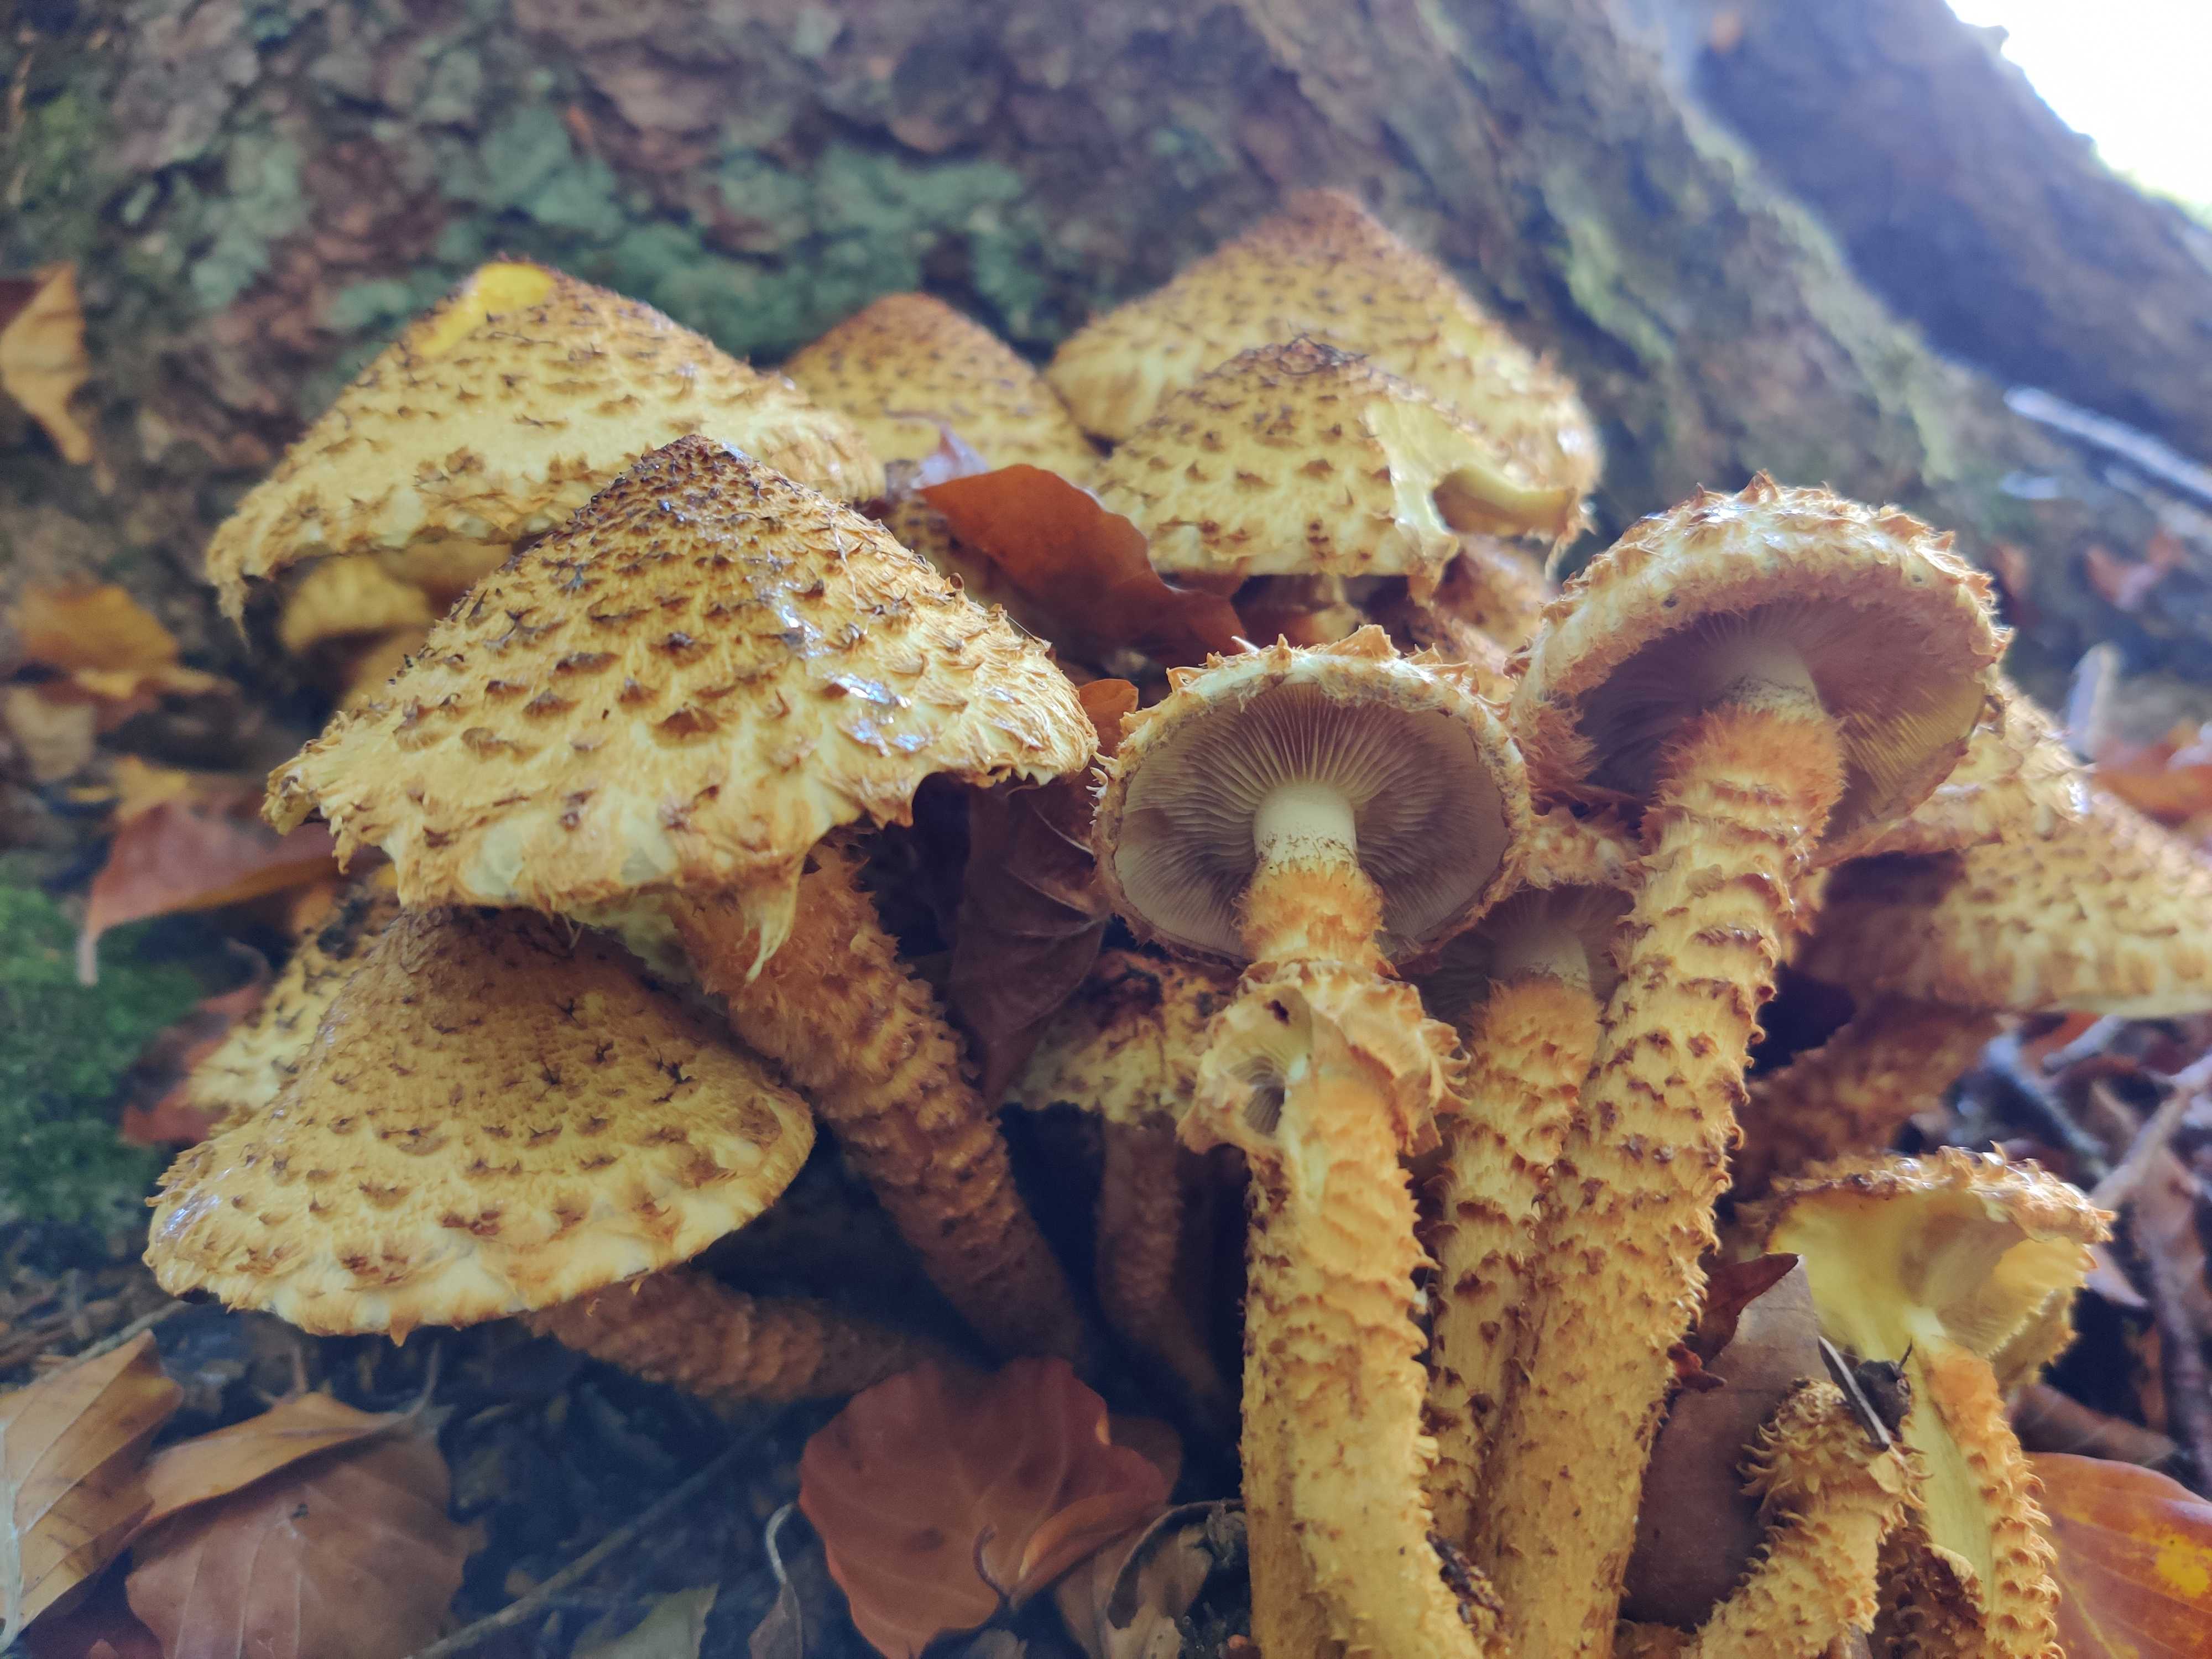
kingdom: Fungi
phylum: Basidiomycota
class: Agaricomycetes
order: Agaricales
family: Strophariaceae
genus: Pholiota
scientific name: Pholiota squarrosa
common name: krumskællet skælhat
